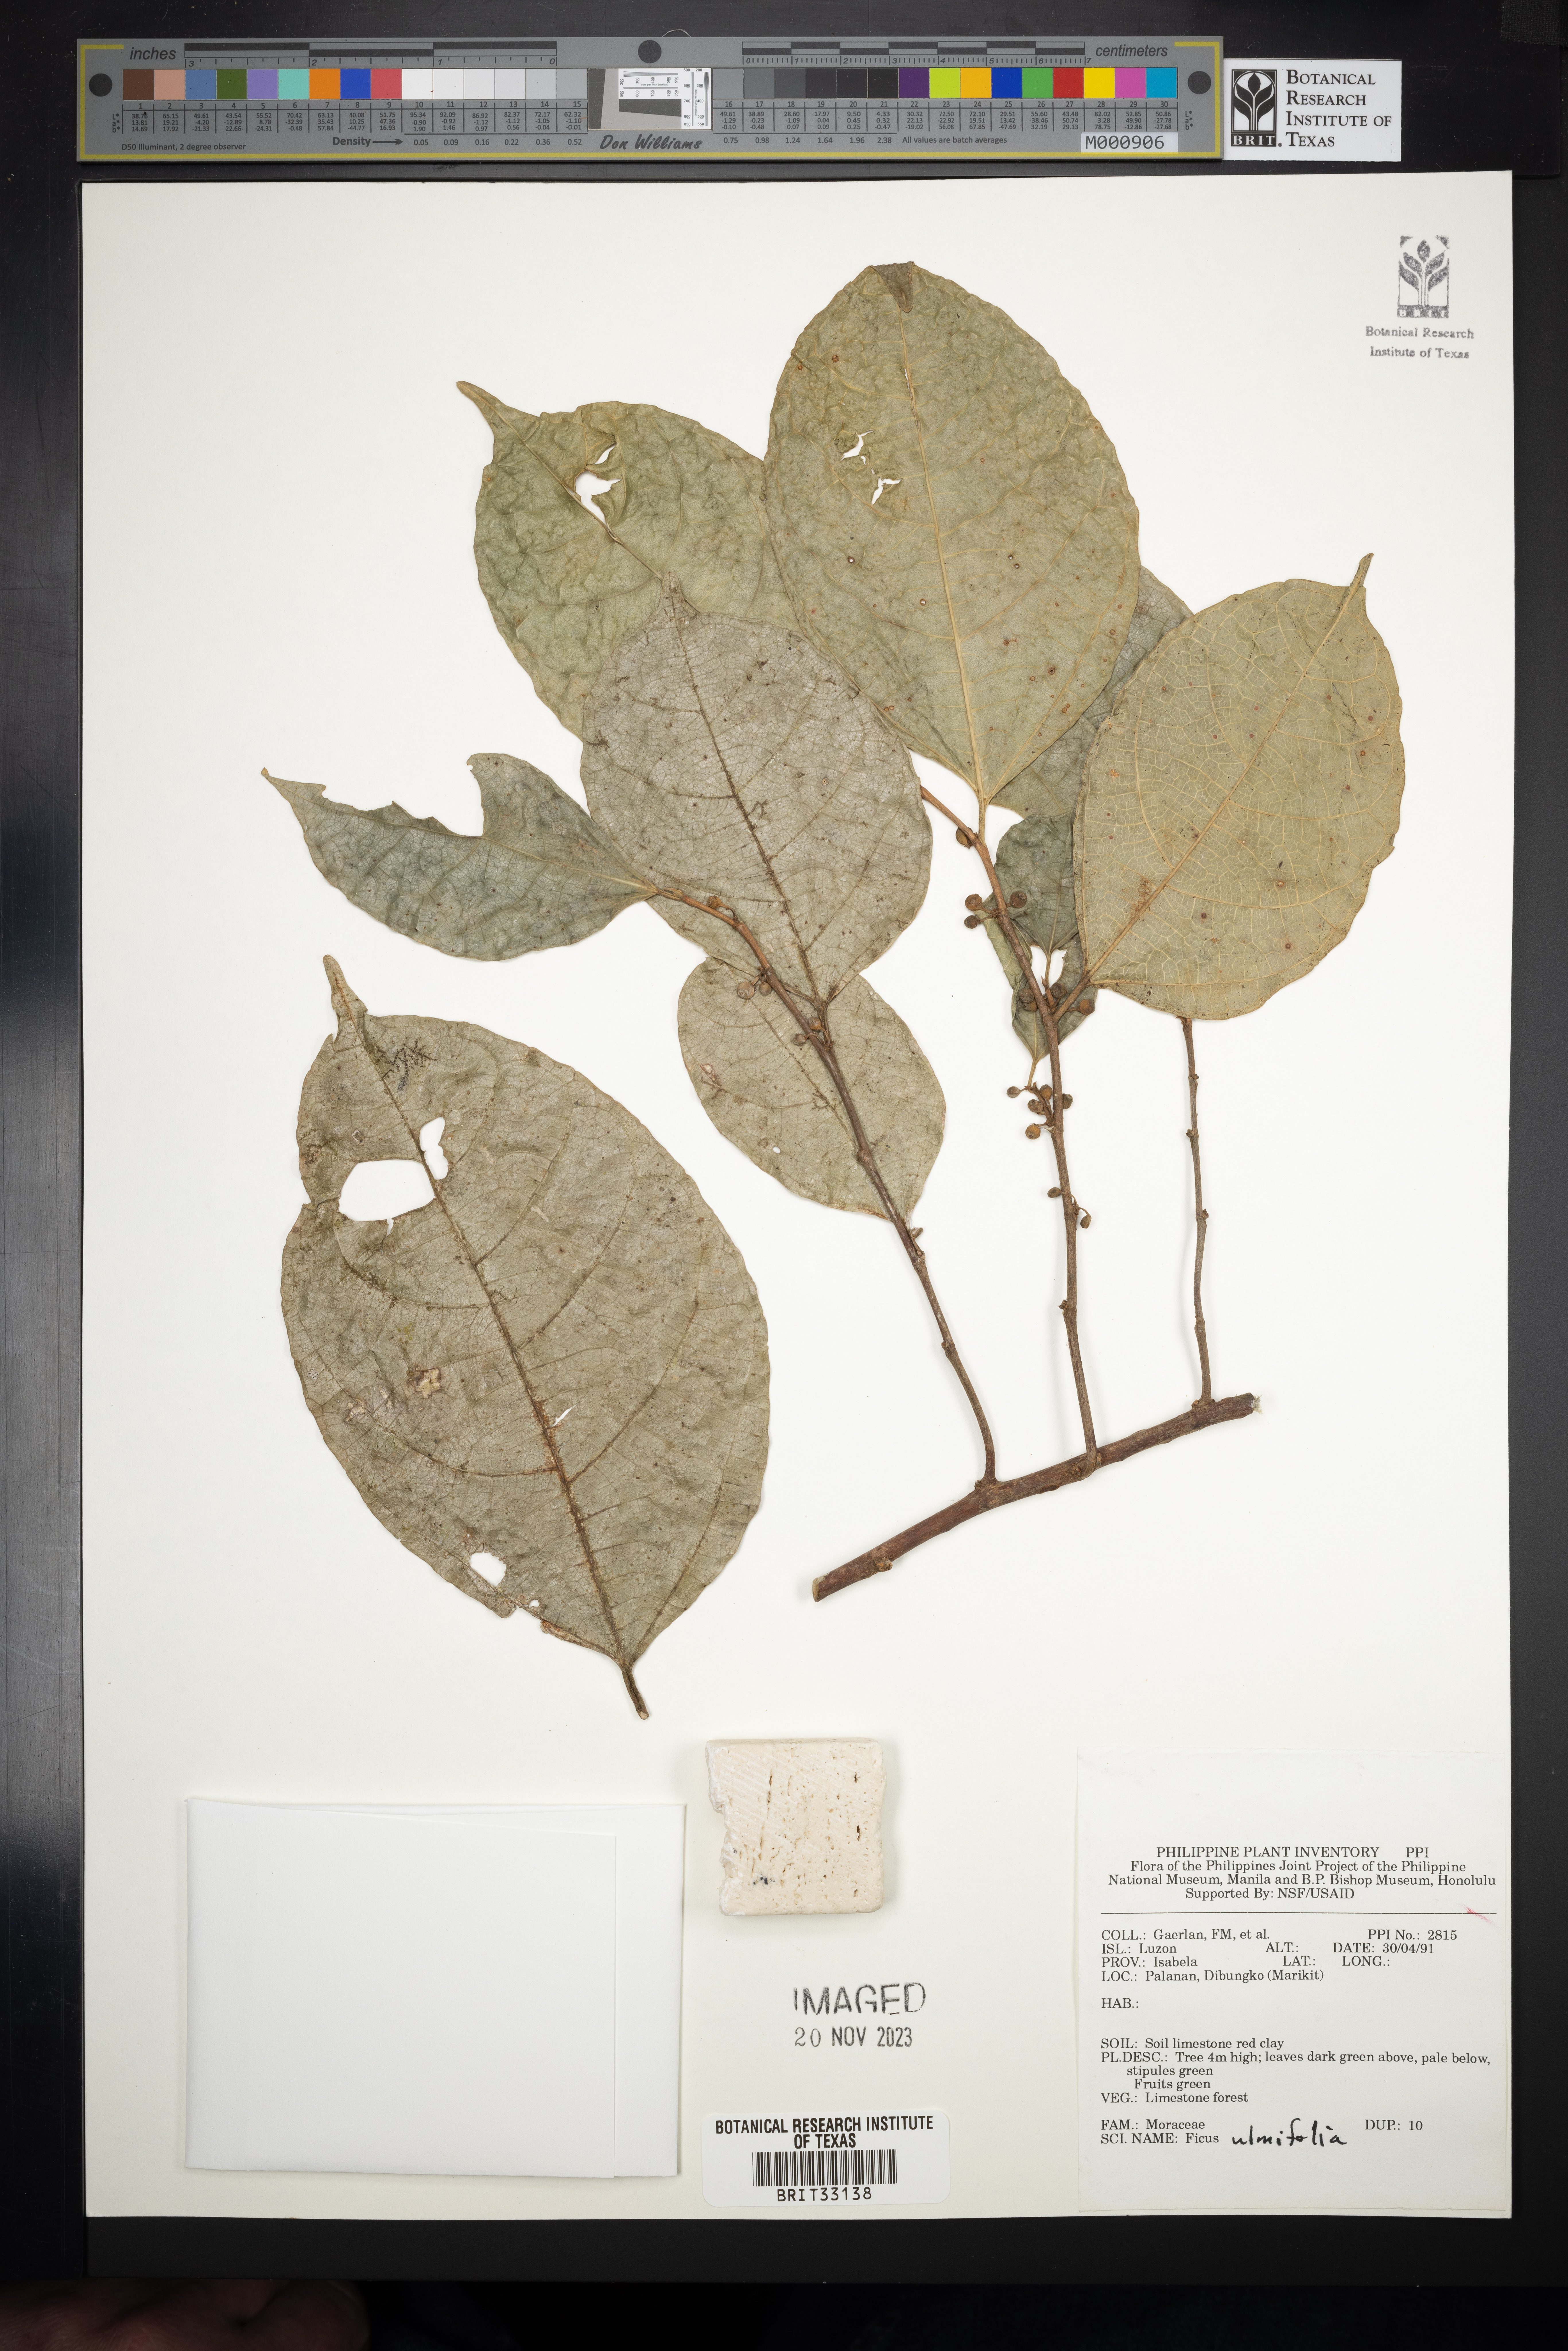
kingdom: Plantae
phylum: Tracheophyta
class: Magnoliopsida
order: Rosales
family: Moraceae
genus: Ficus
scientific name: Ficus ulmifolia
